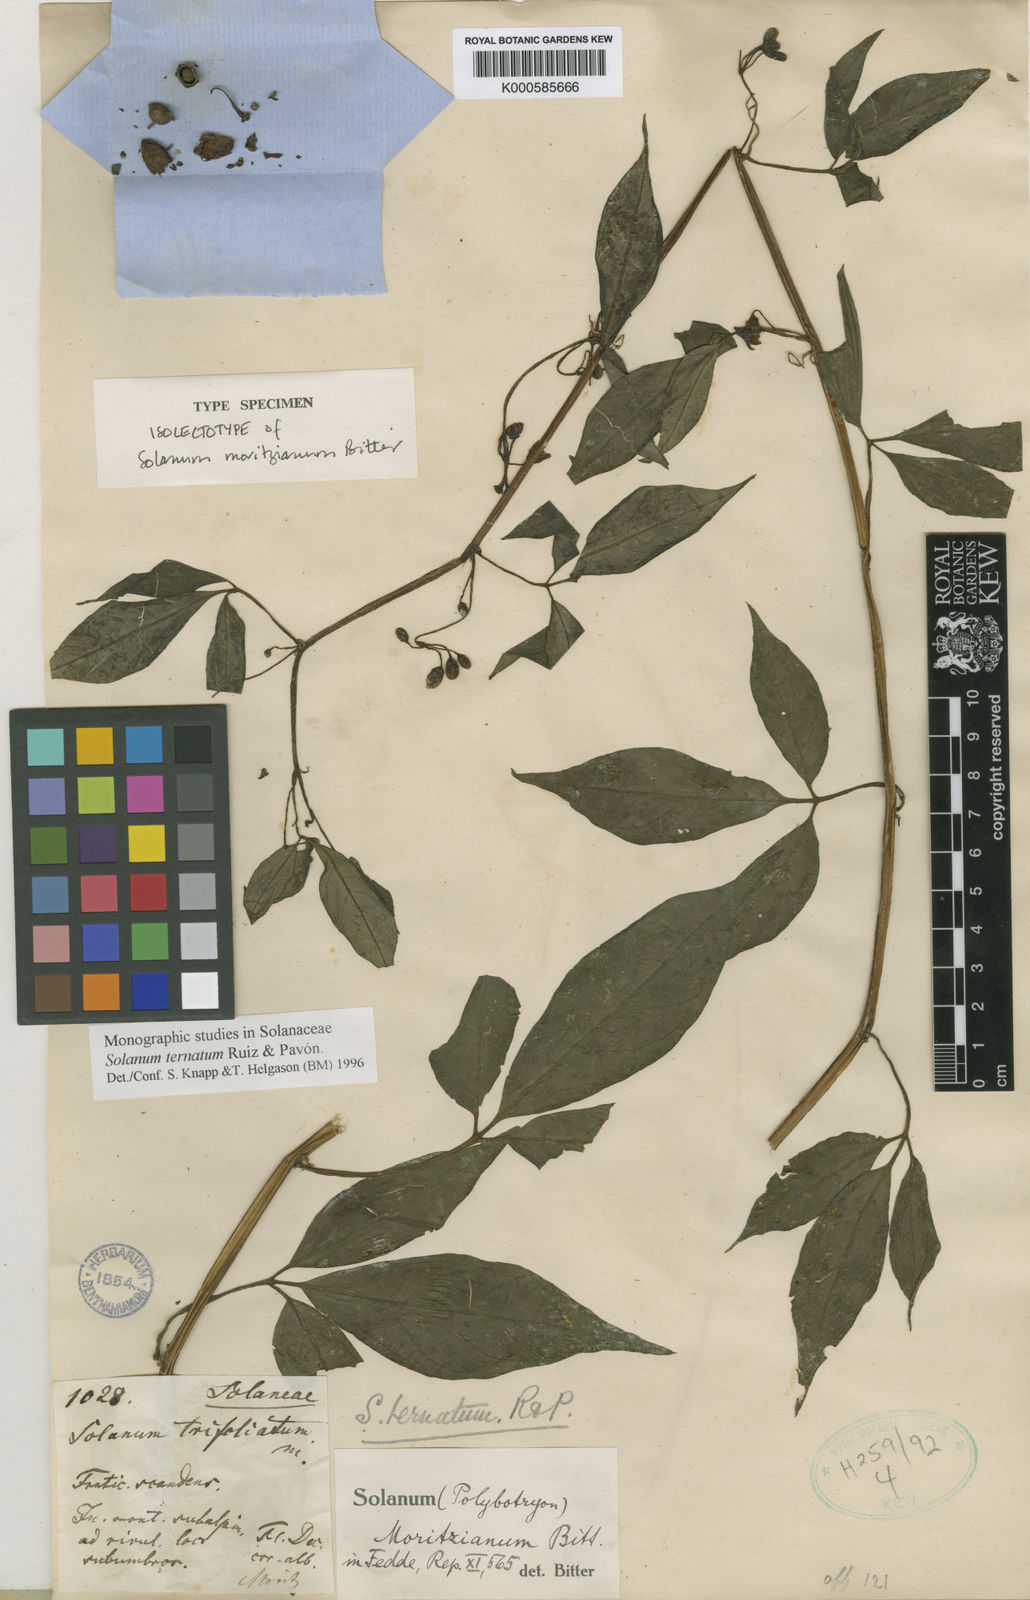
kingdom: Plantae
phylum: Tracheophyta
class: Magnoliopsida
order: Solanales
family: Solanaceae
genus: Solanum
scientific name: Solanum ternatum
